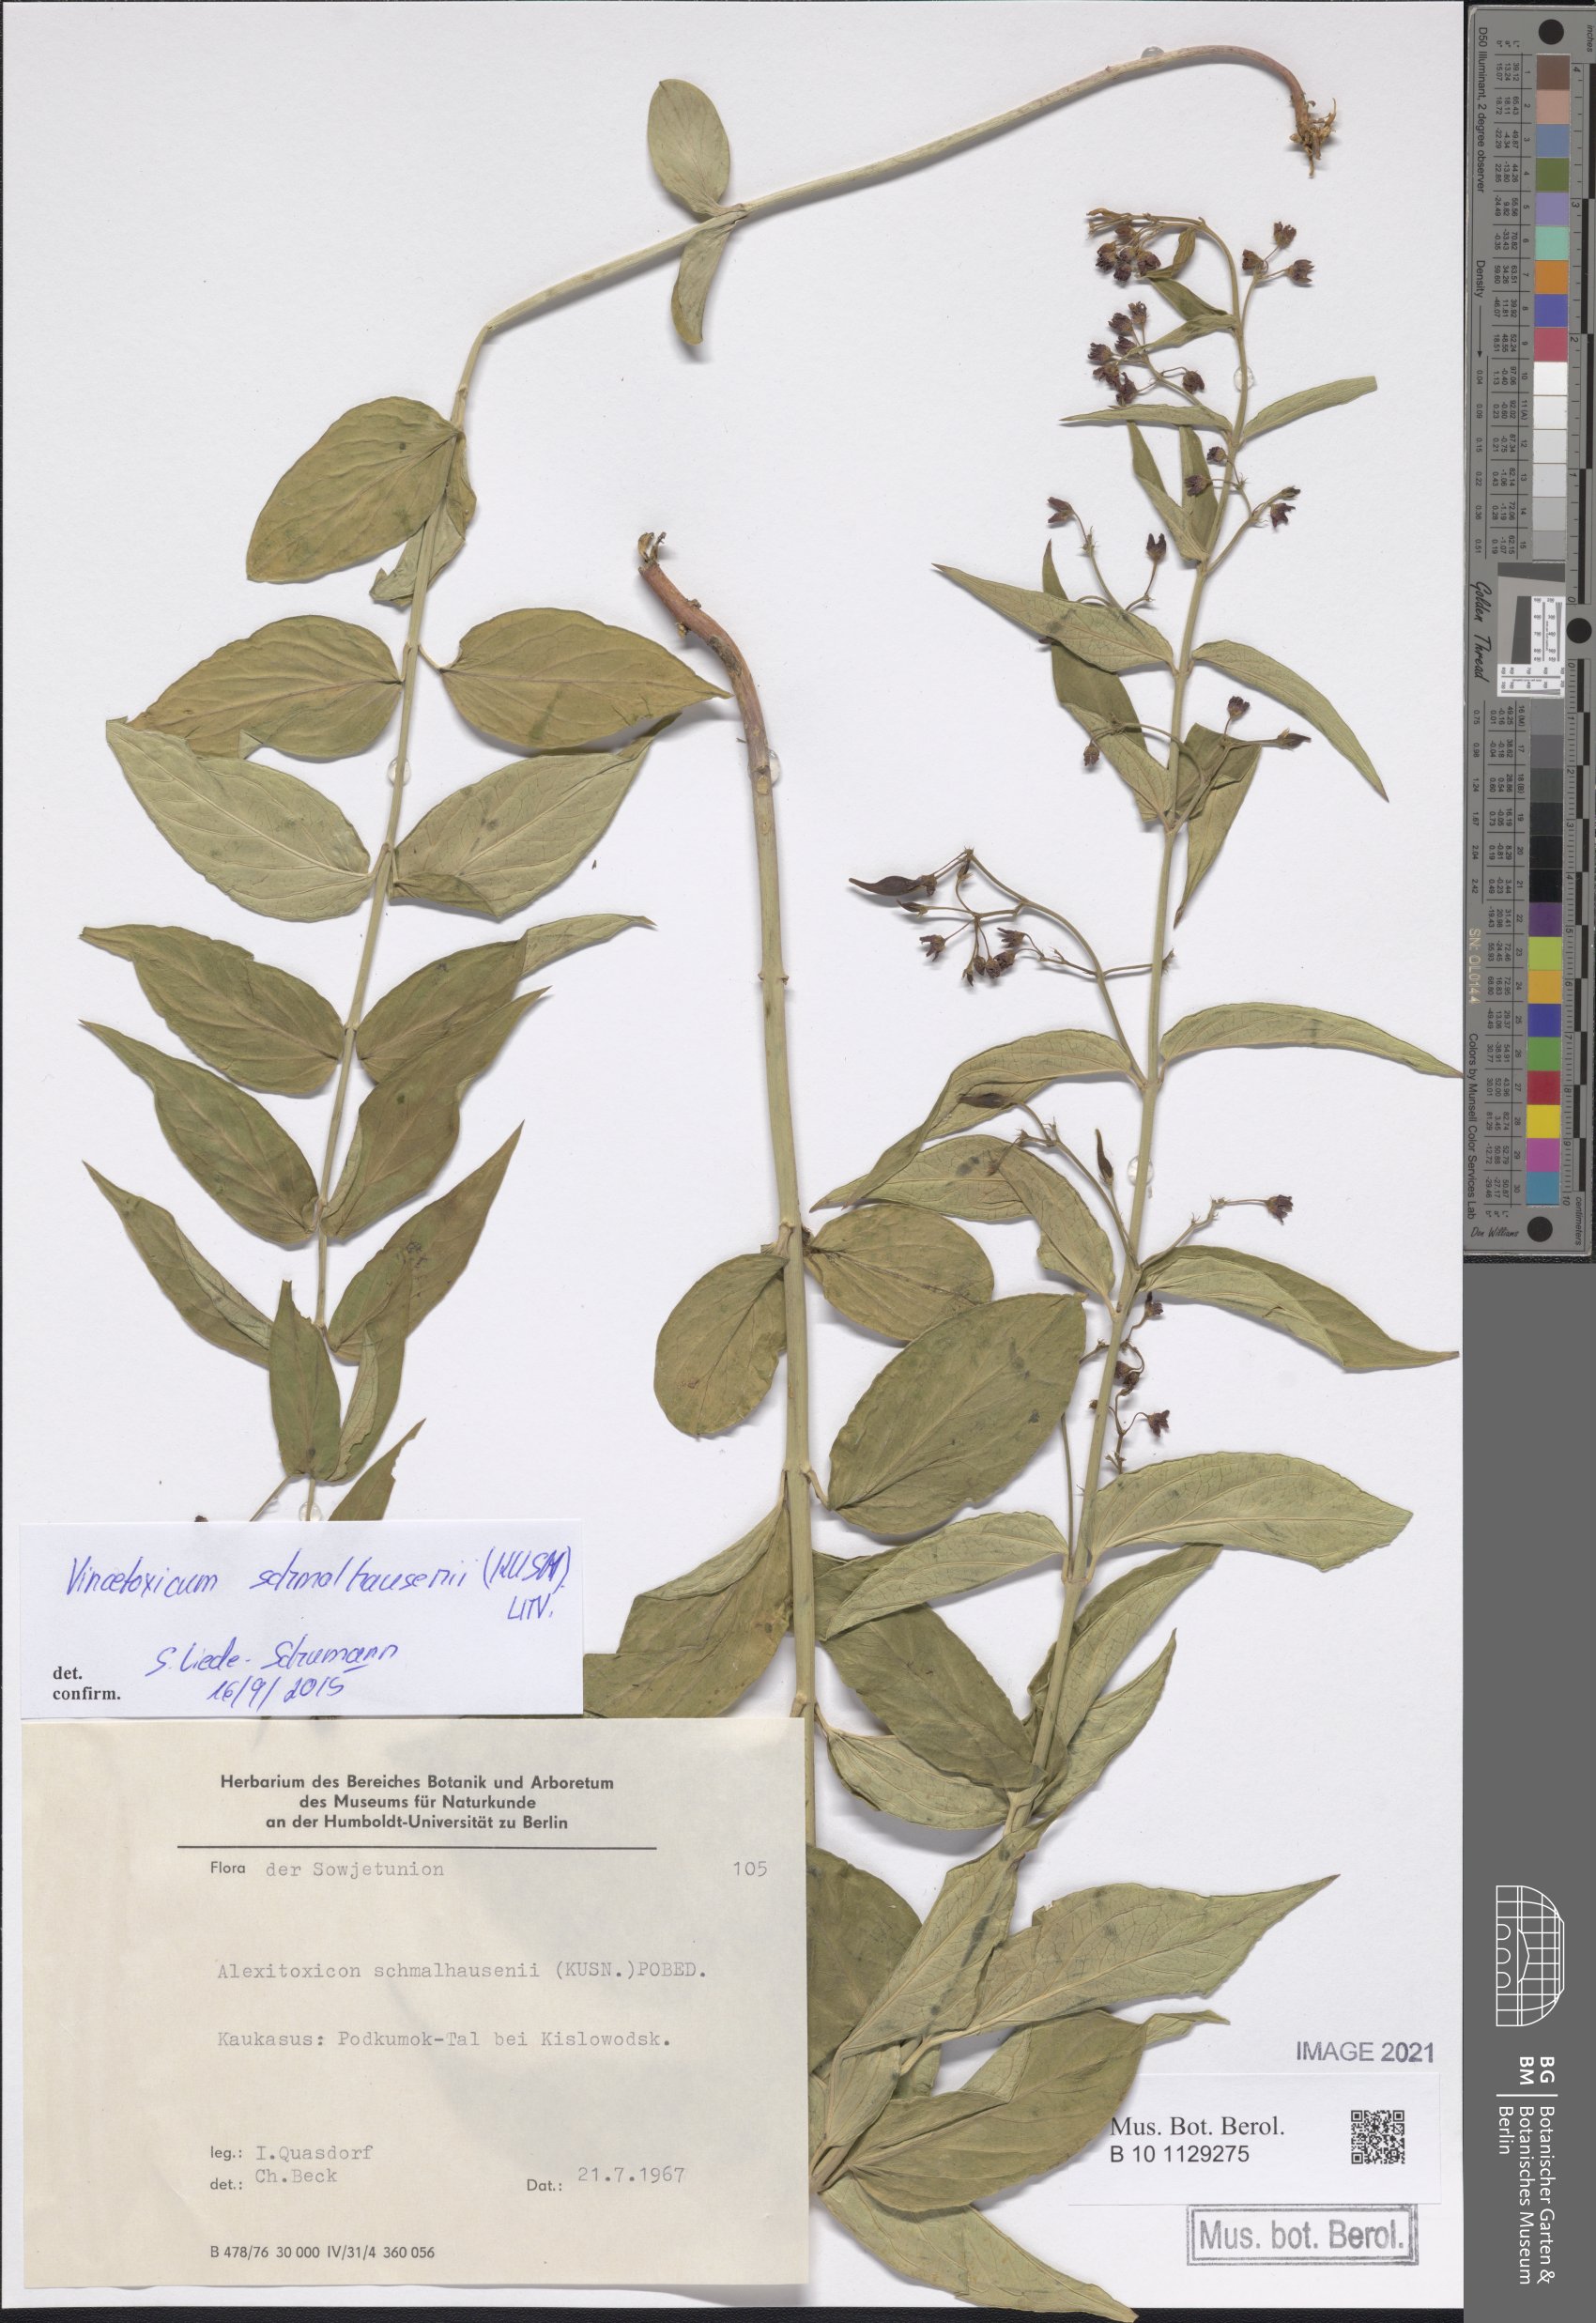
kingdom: Plantae
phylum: Tracheophyta
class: Magnoliopsida
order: Gentianales
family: Apocynaceae
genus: Vincetoxicum
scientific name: Vincetoxicum schmalhausenii
